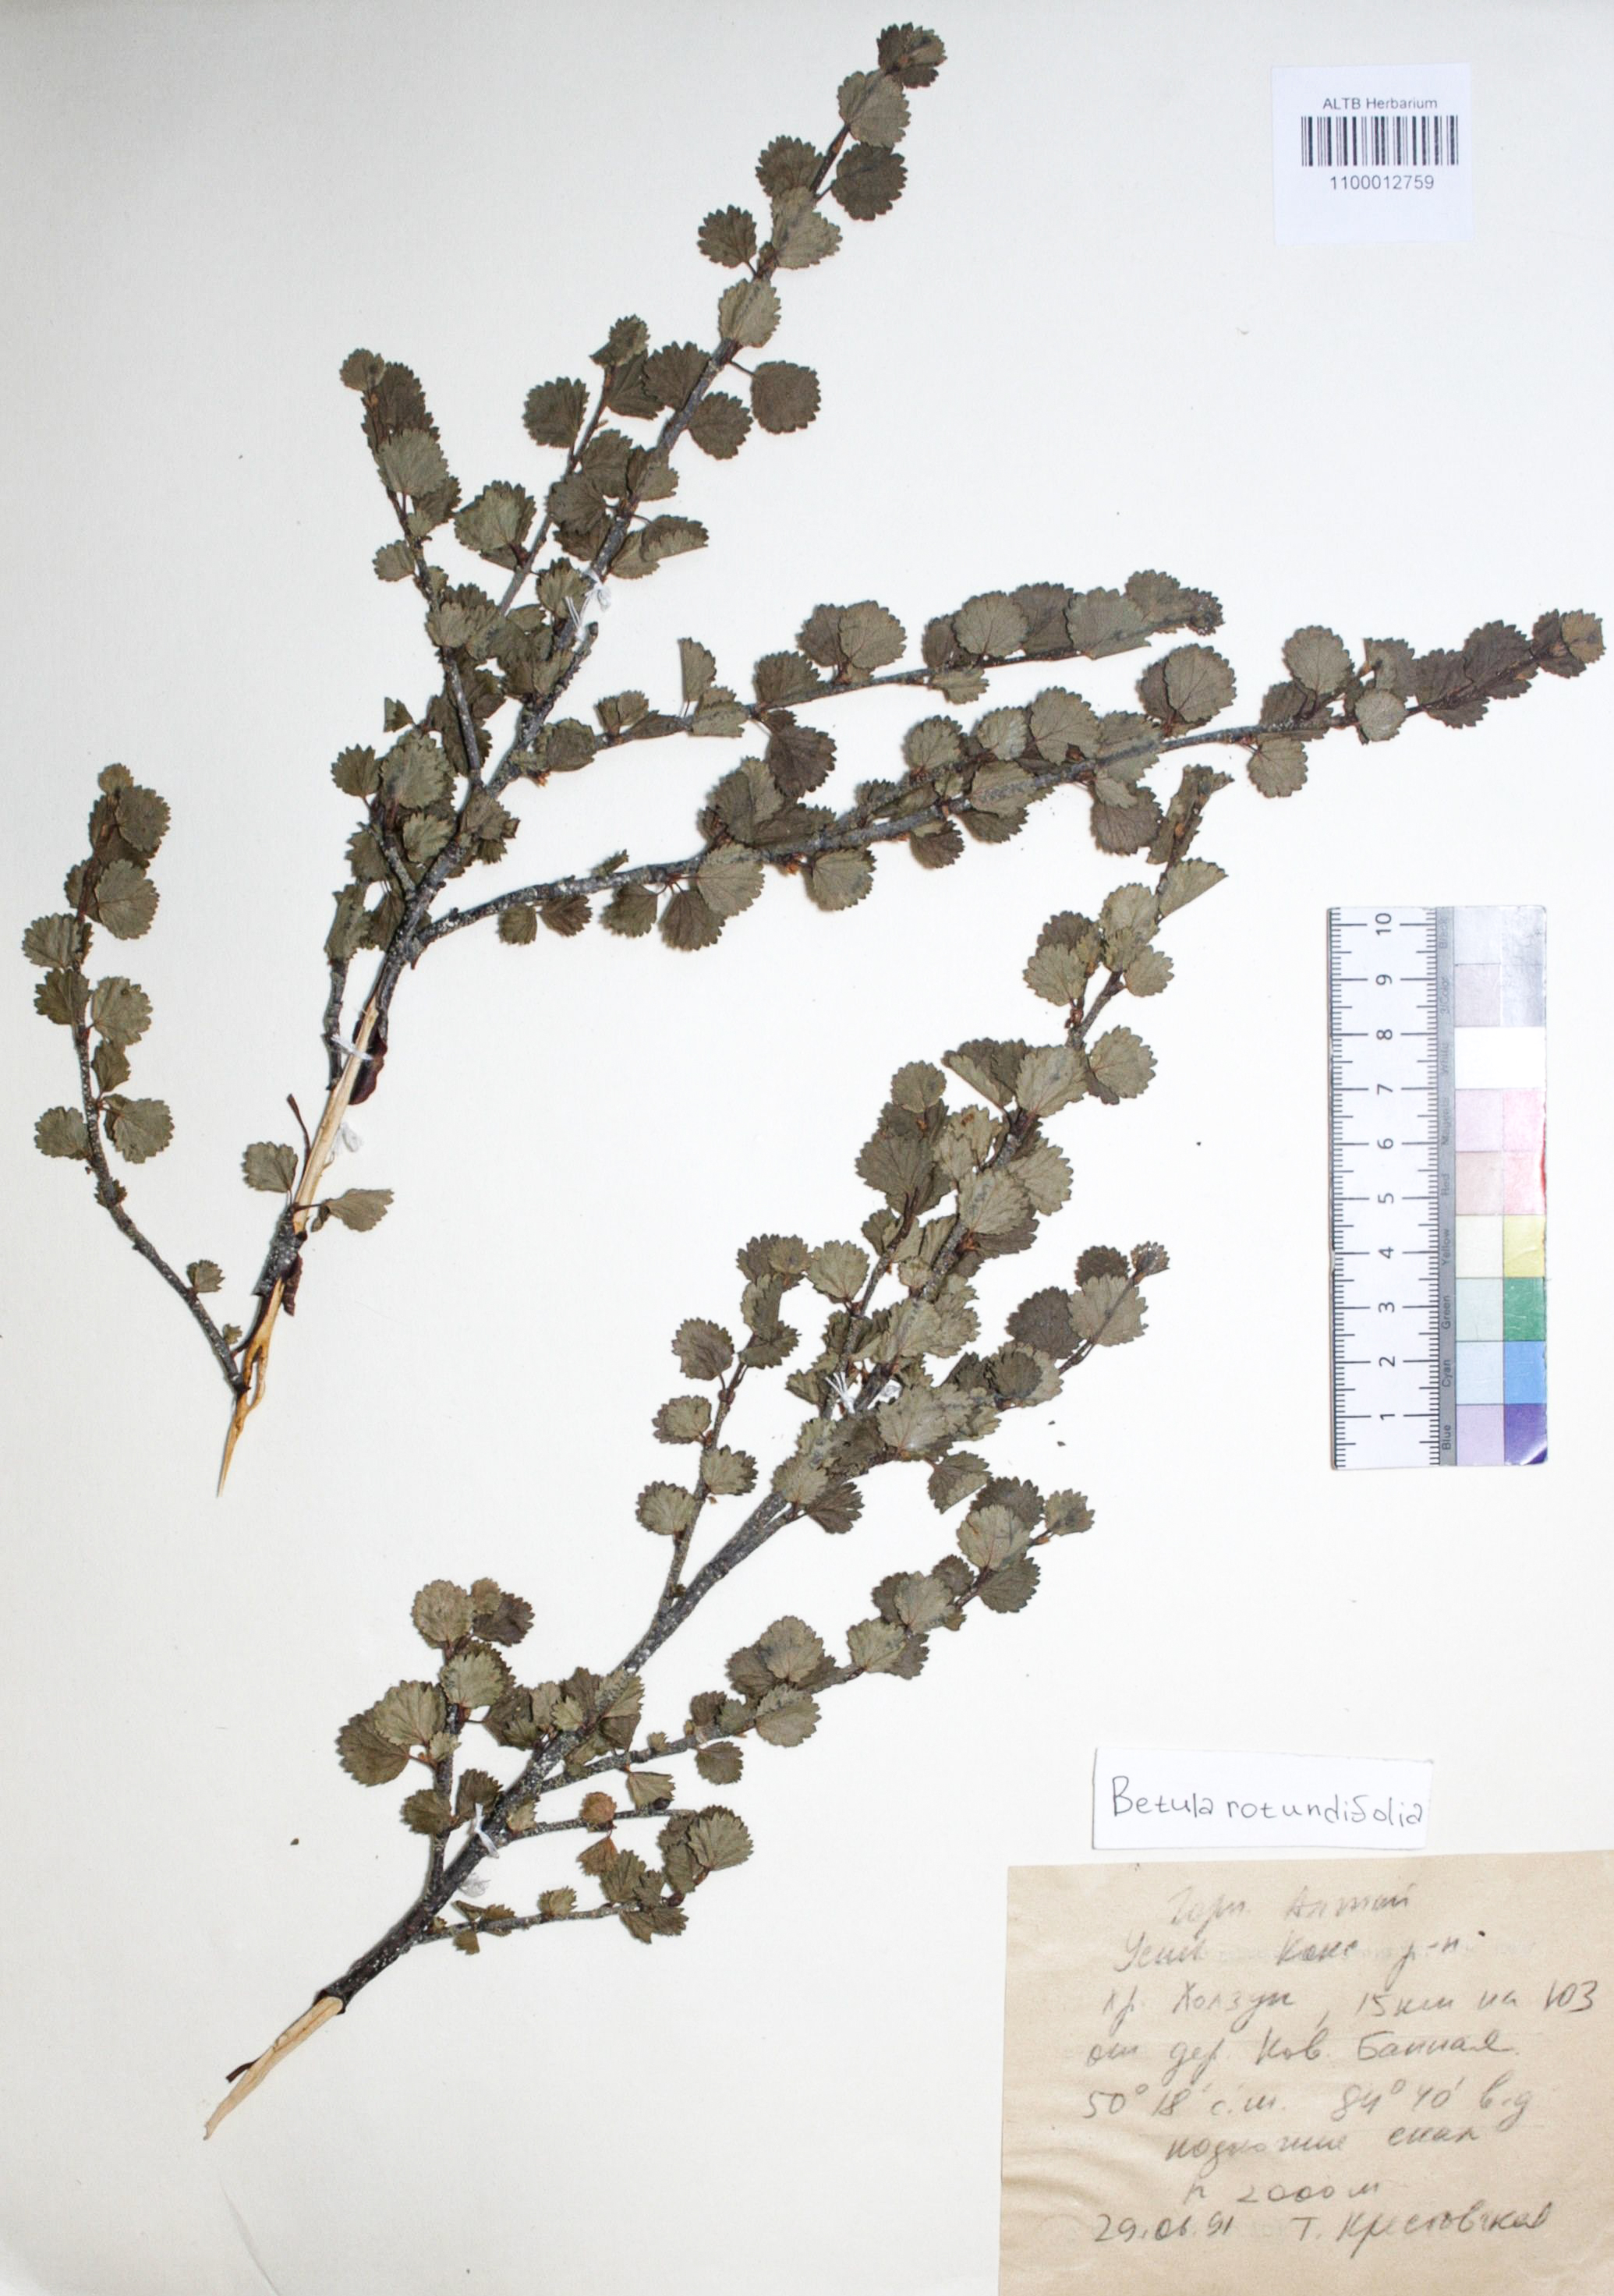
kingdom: Plantae
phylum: Tracheophyta
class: Magnoliopsida
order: Fagales
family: Betulaceae
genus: Betula
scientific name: Betula glandulosa
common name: Dwarf birch
